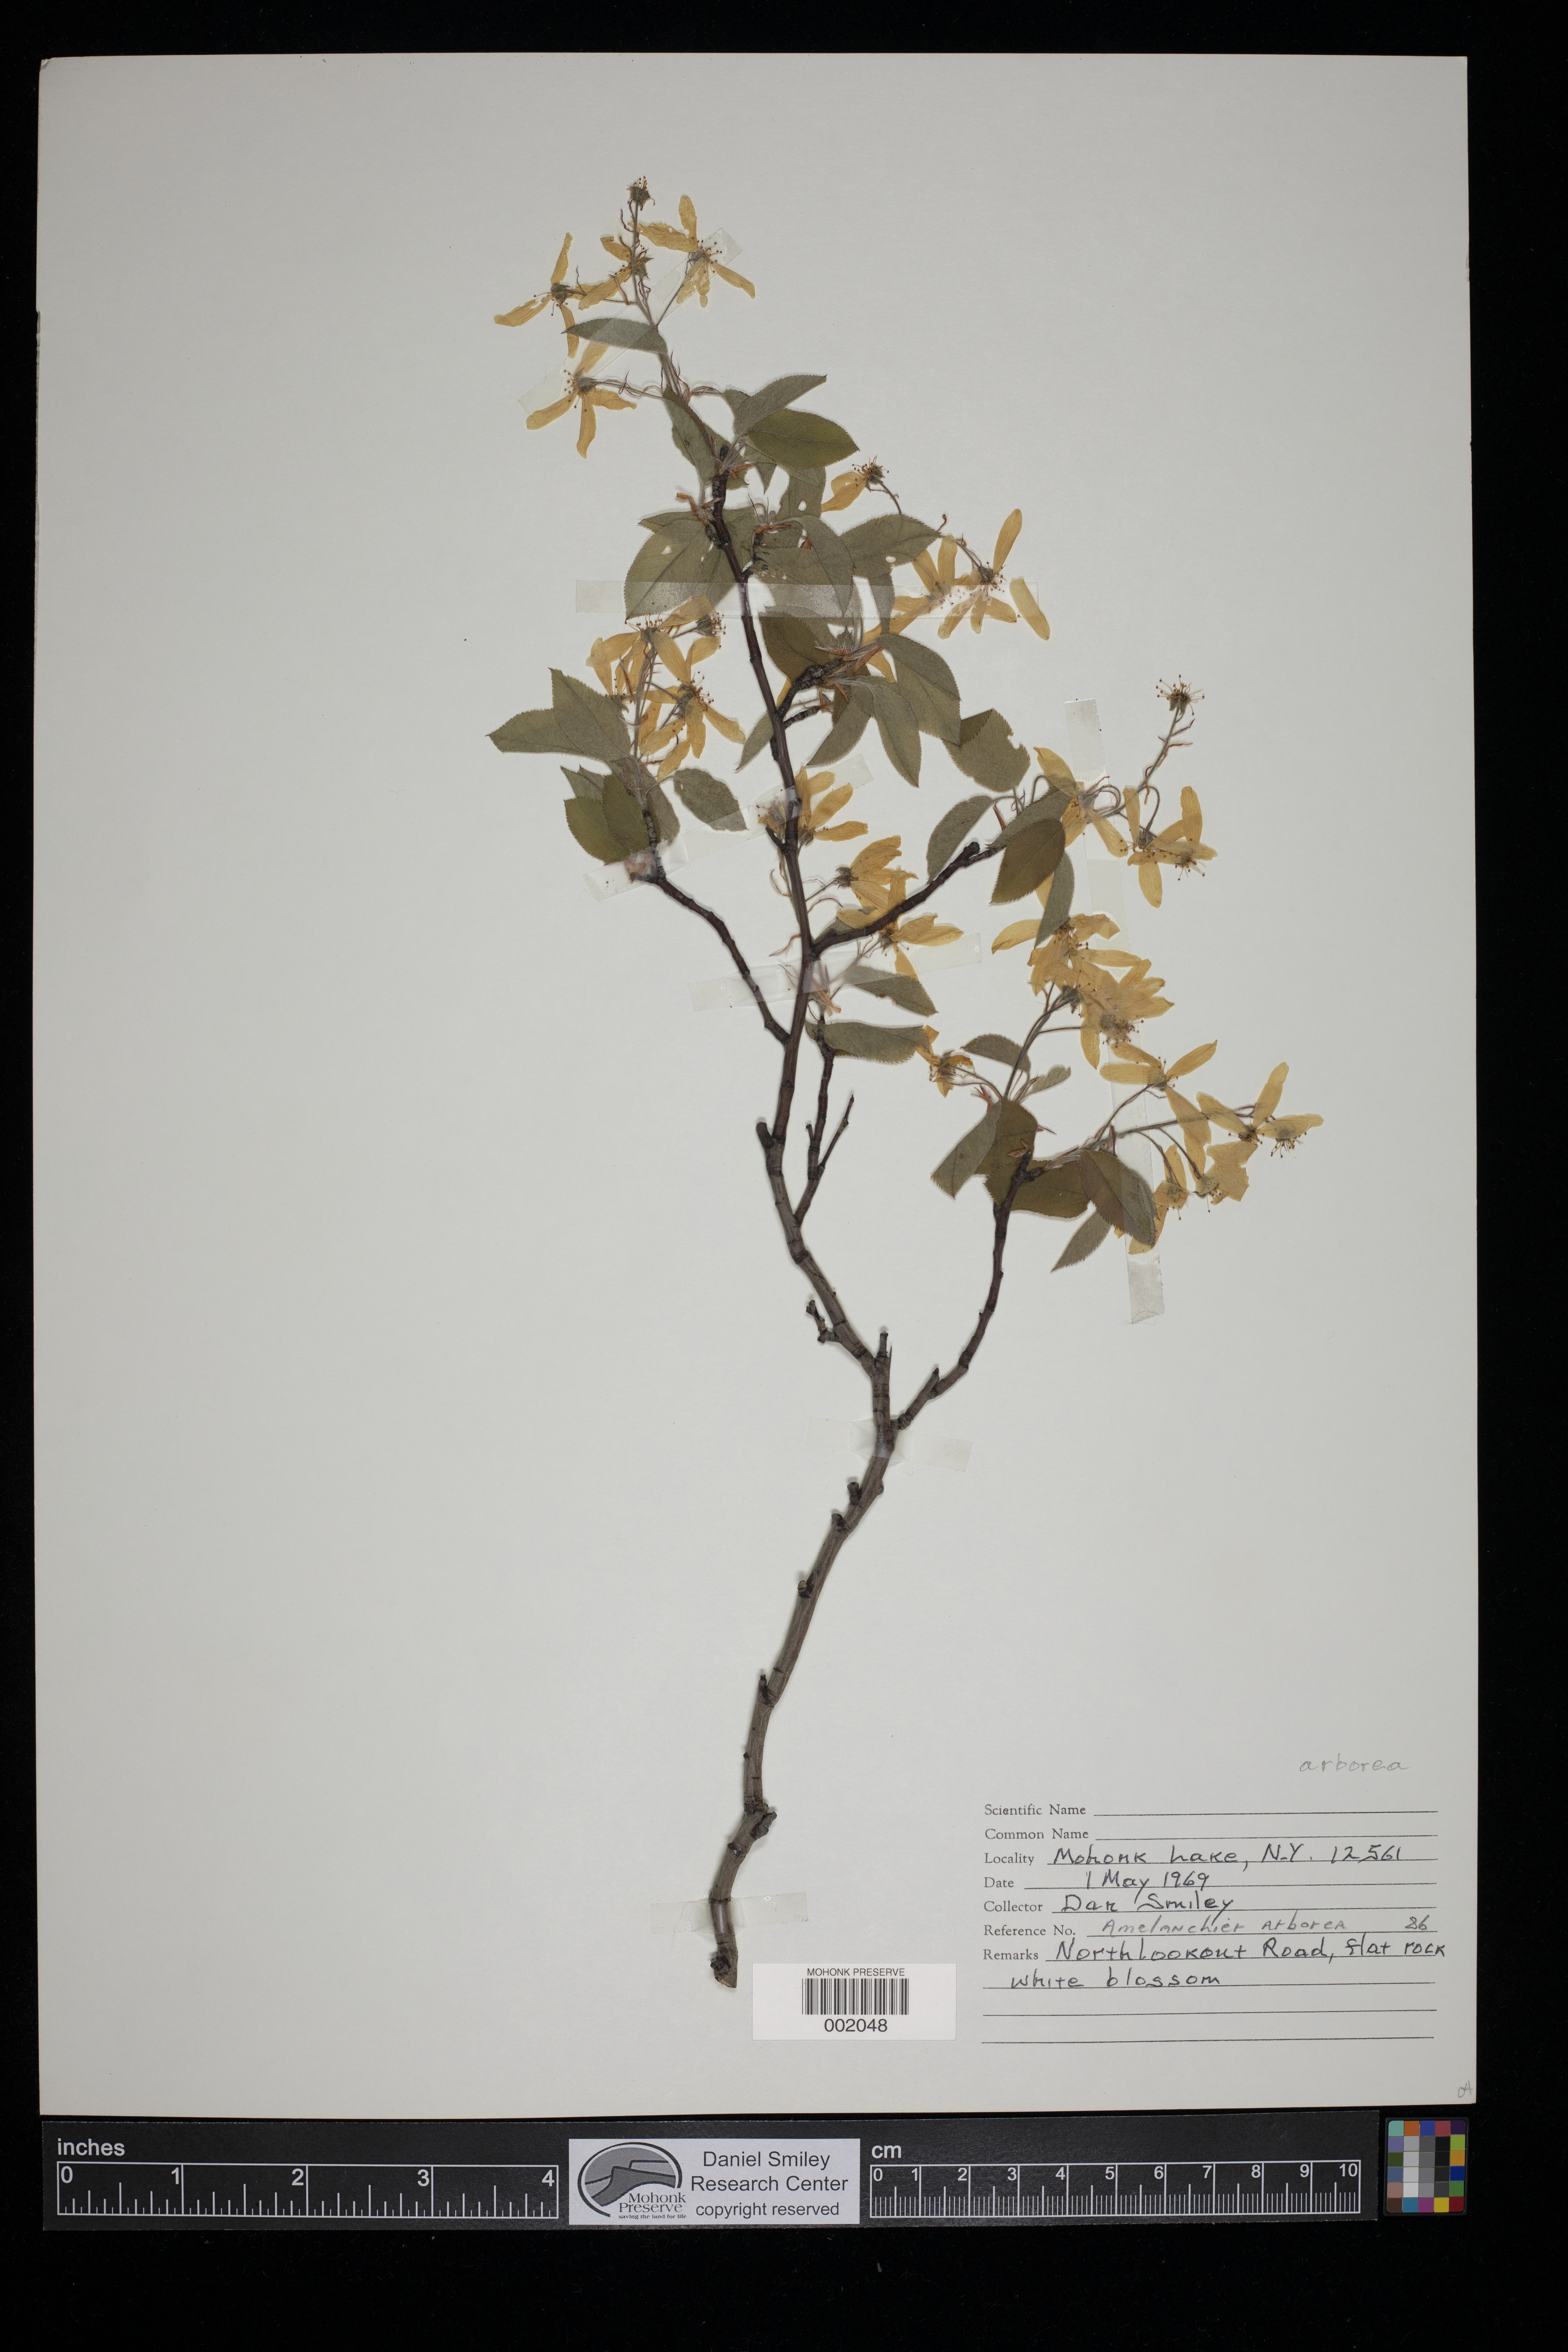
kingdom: Plantae
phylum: Tracheophyta
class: Magnoliopsida
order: Rosales
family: Rosaceae
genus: Amelanchier
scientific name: Amelanchier arborea
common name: Downy serviceberry
